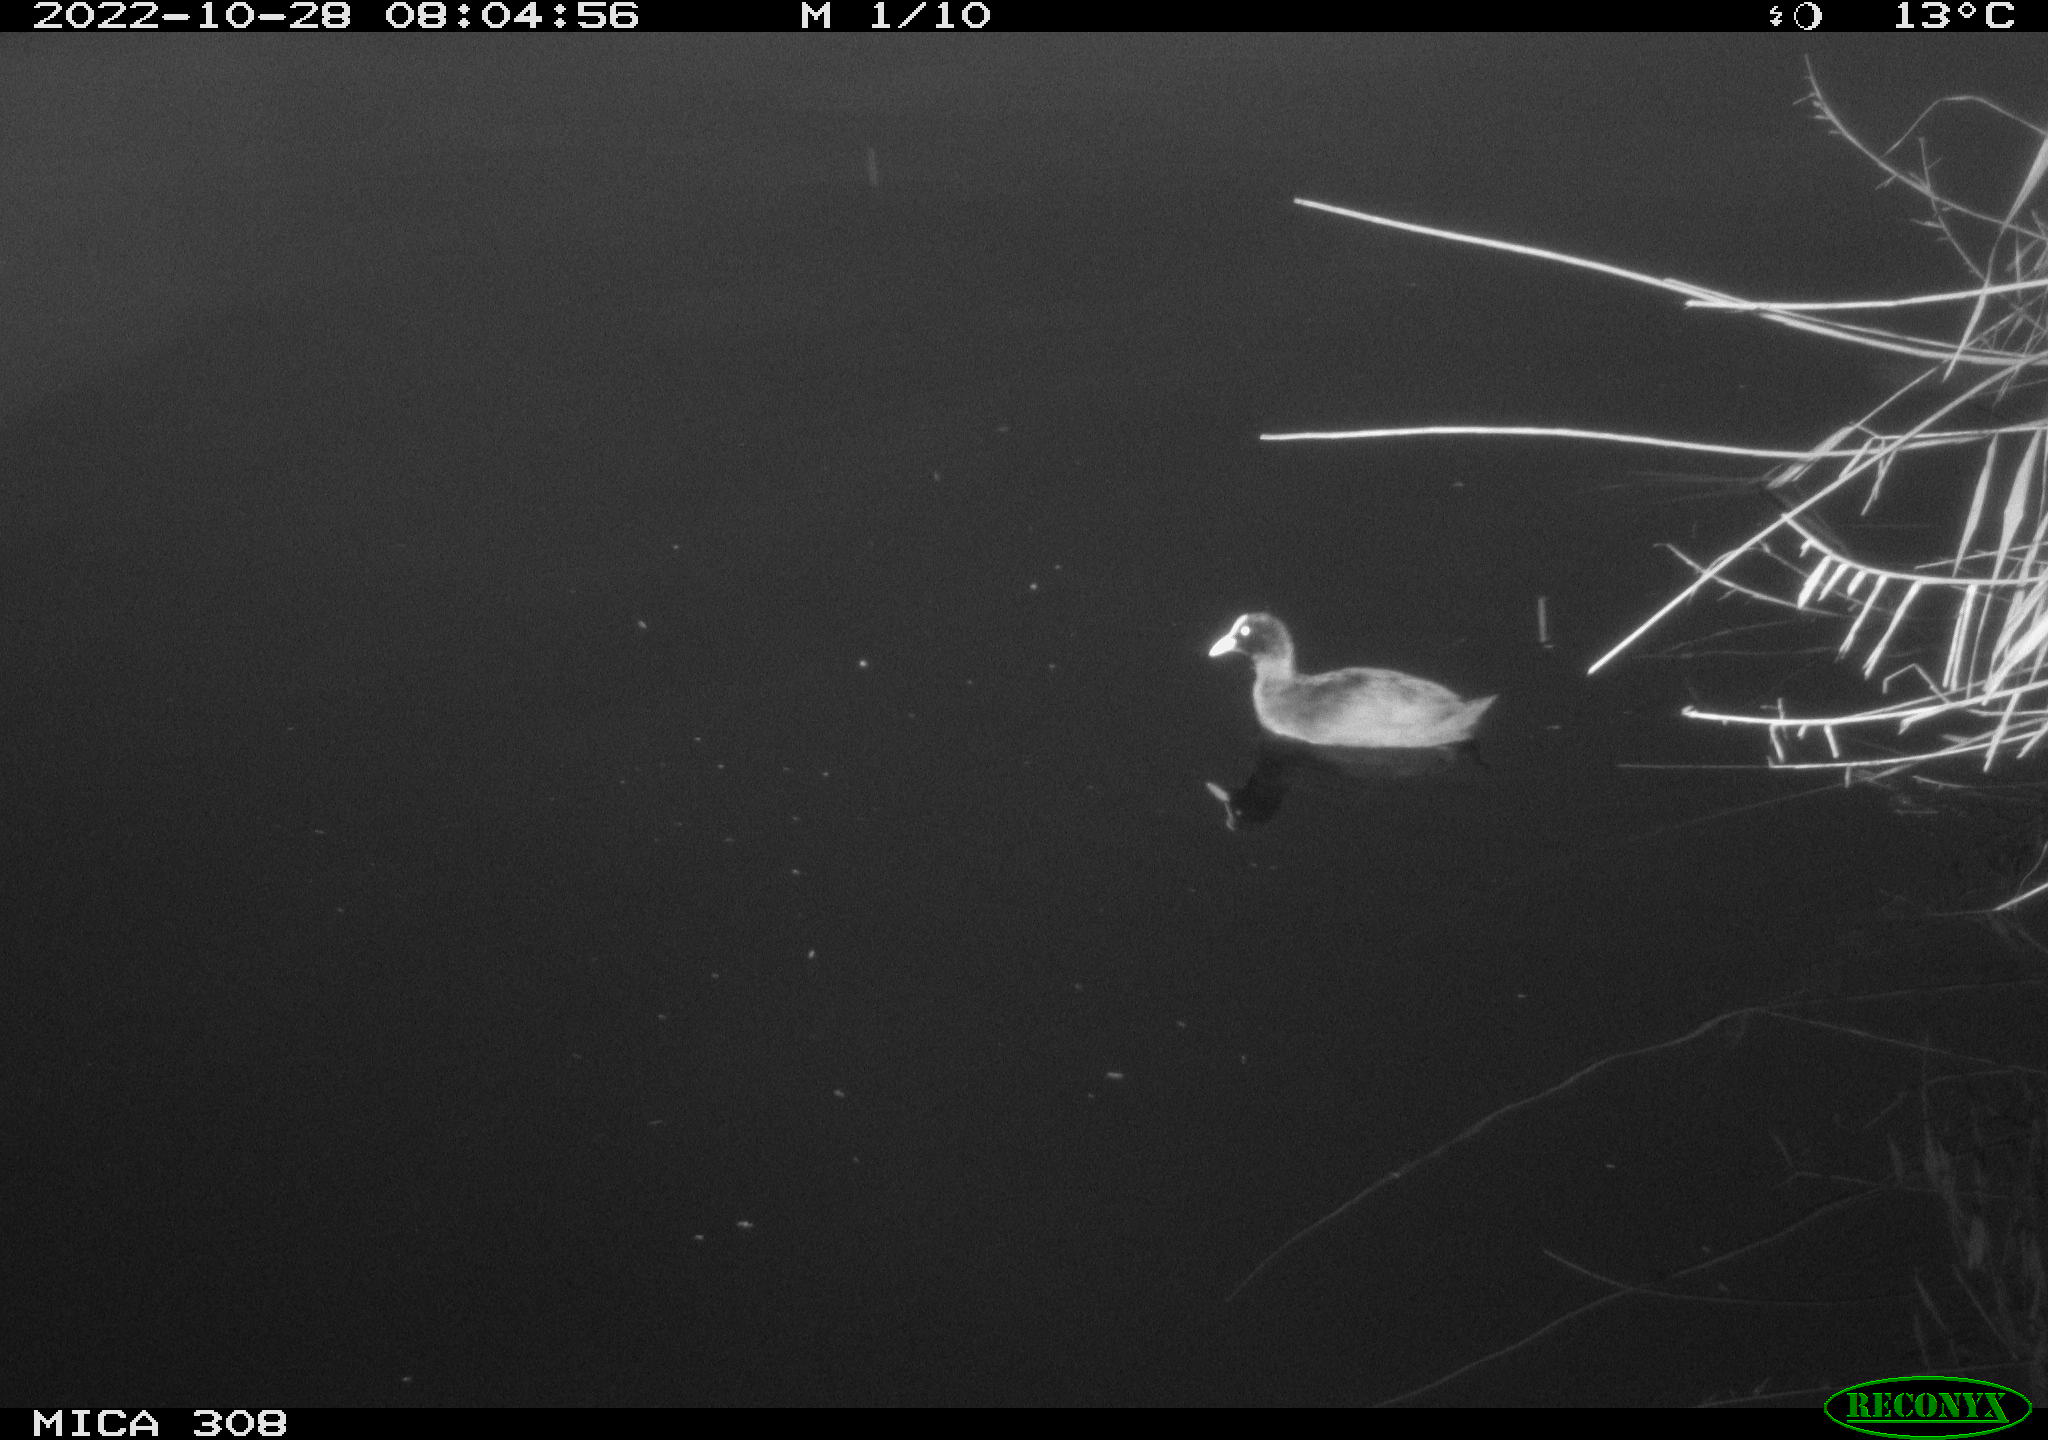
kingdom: Animalia
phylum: Chordata
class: Aves
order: Gruiformes
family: Rallidae
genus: Fulica
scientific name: Fulica atra
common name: Eurasian coot
